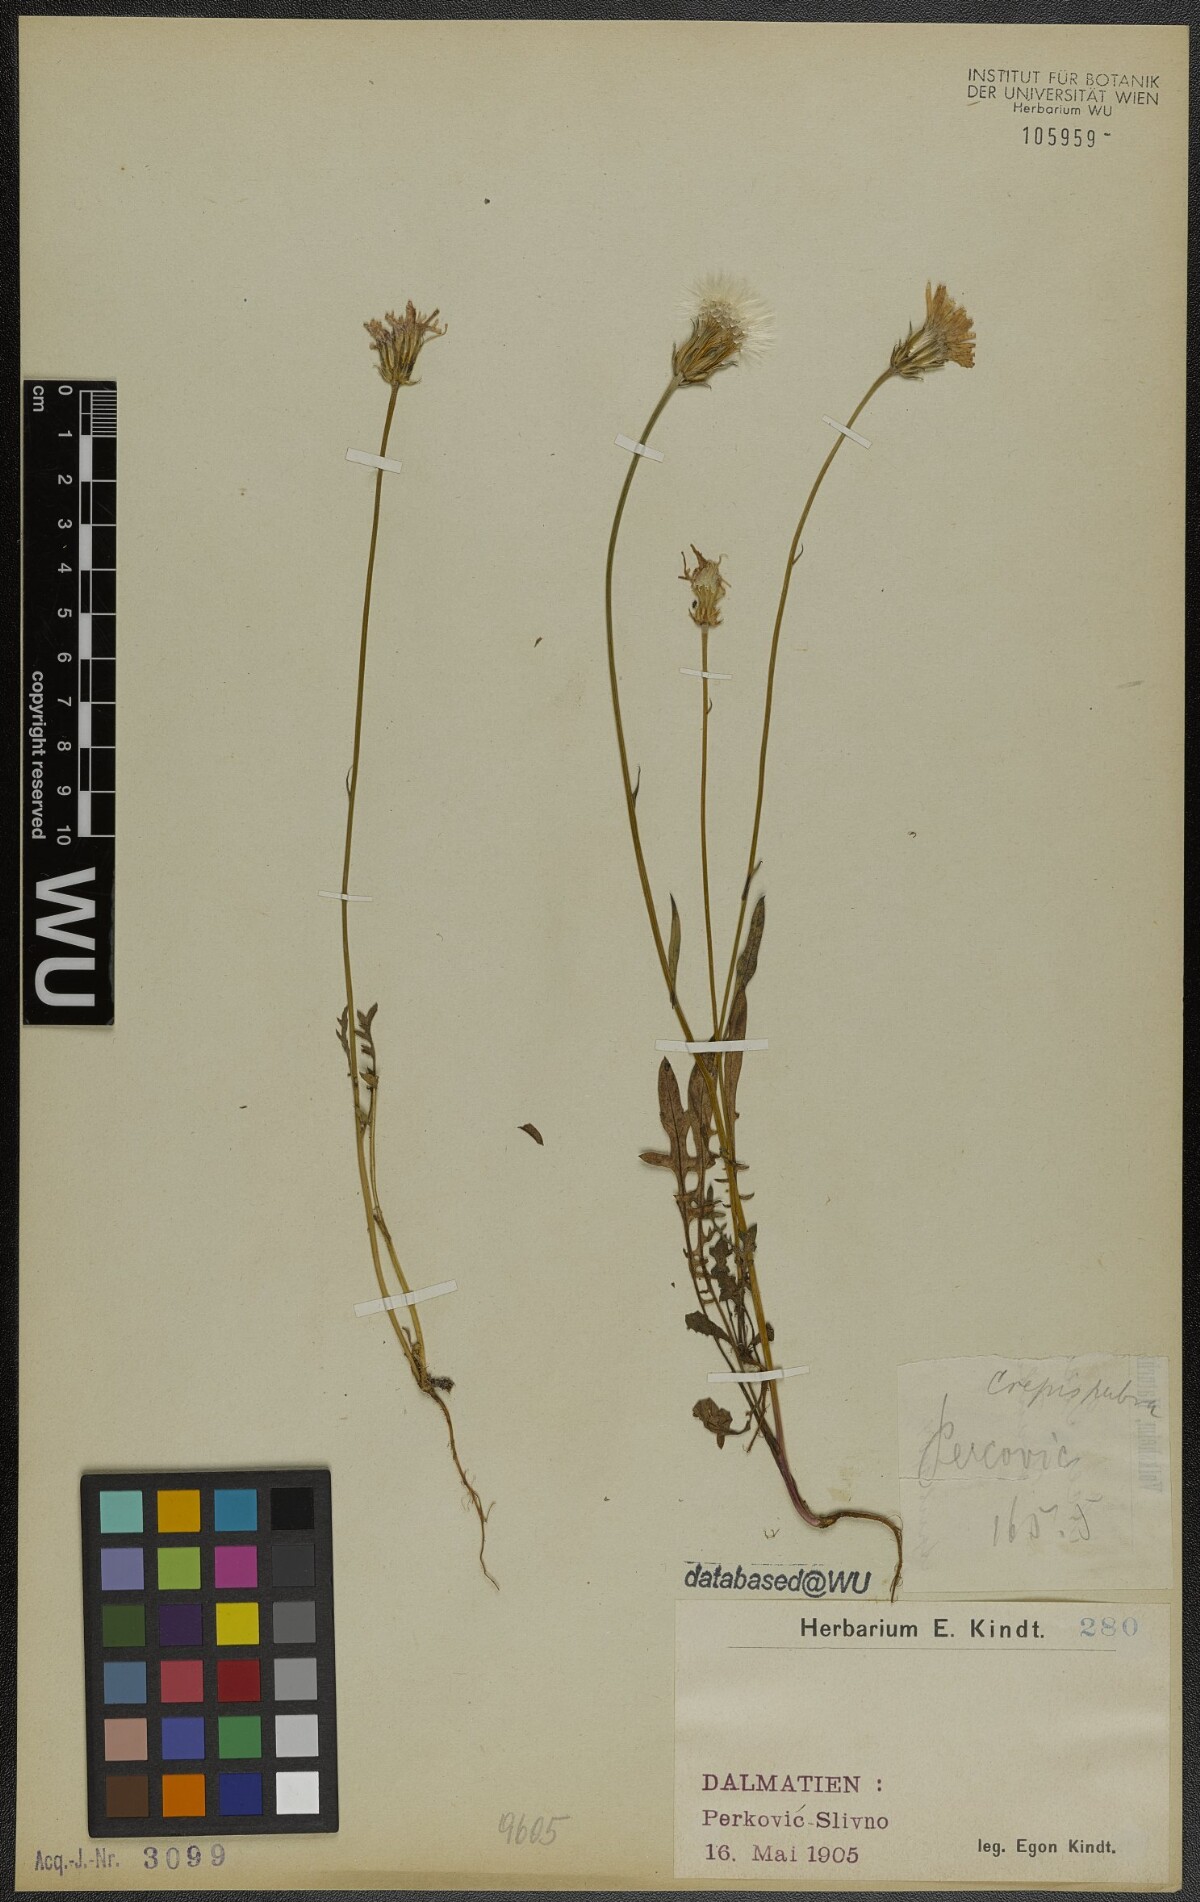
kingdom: Plantae
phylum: Tracheophyta
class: Magnoliopsida
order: Asterales
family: Asteraceae
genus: Crepis
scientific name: Crepis rubra
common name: Pink hawk's-beard
